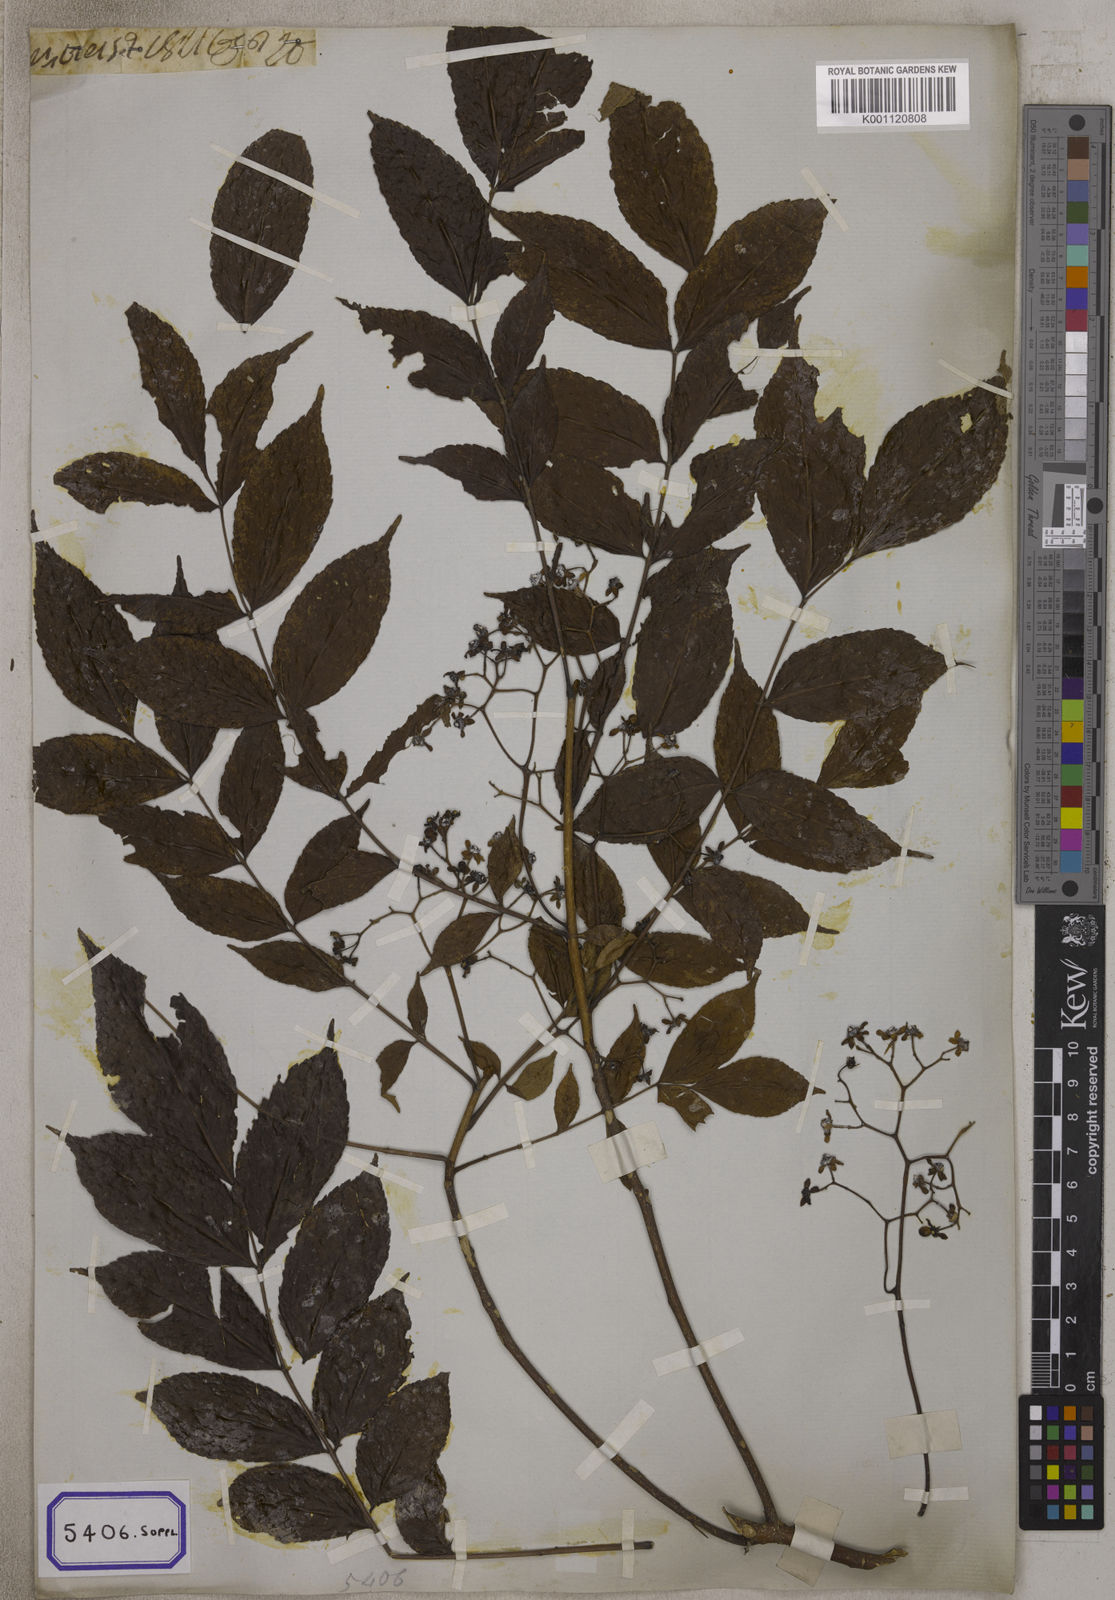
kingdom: Plantae
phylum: Tracheophyta
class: Magnoliopsida
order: Fabales
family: Fabaceae
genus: Crotalaria
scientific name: Crotalaria spectabilis
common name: Showy rattlebox
